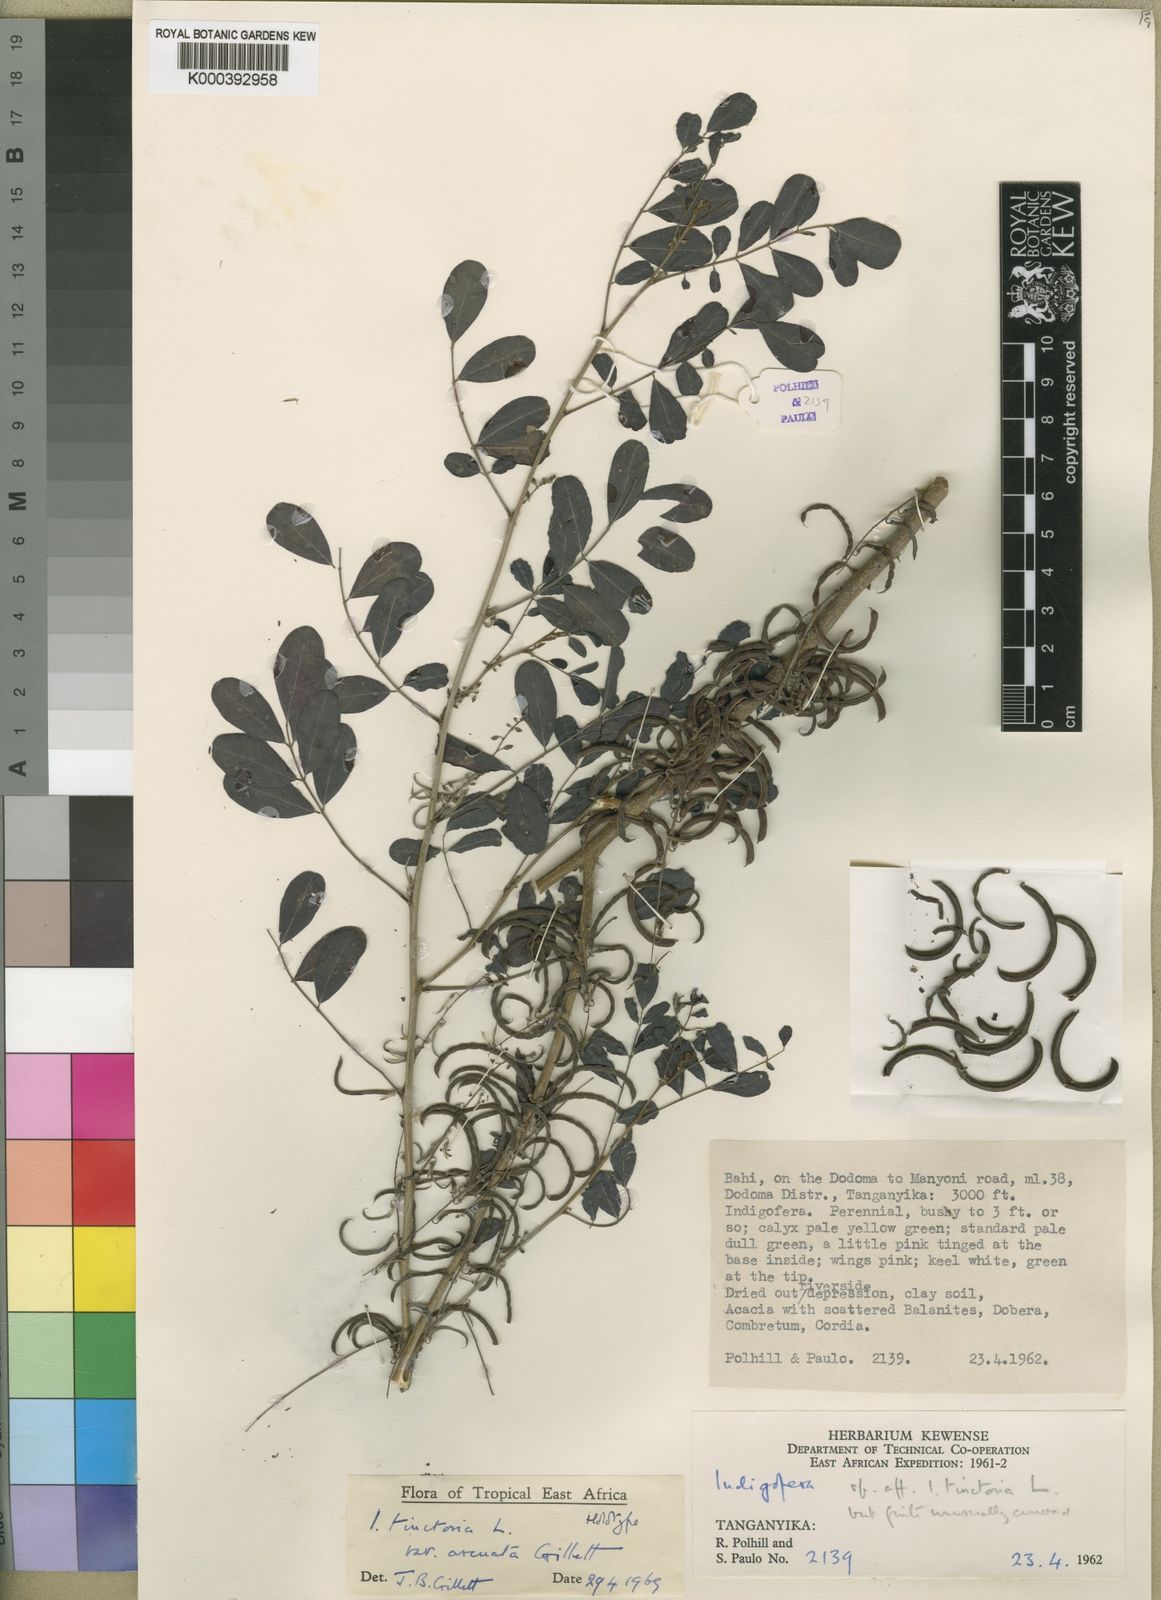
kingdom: Plantae
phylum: Tracheophyta
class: Magnoliopsida
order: Fabales
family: Fabaceae
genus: Indigofera
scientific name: Indigofera tinctoria
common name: True indigo
